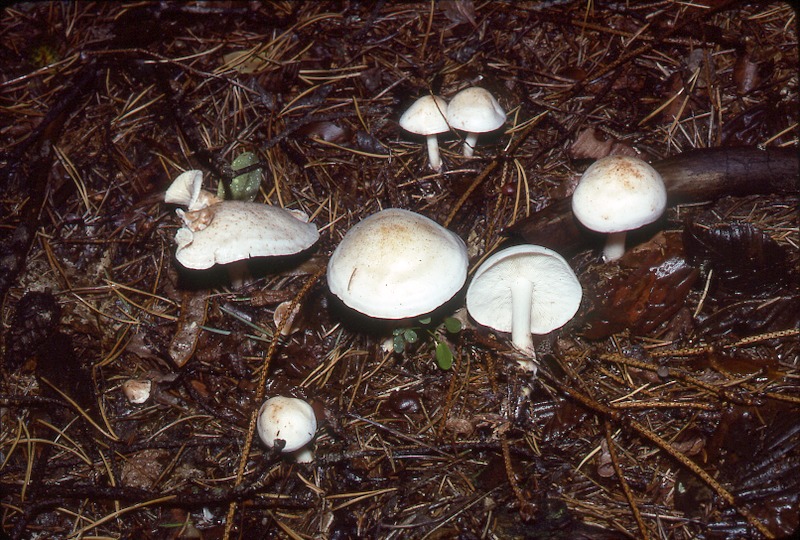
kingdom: Fungi
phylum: Basidiomycota
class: Agaricomycetes
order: Agaricales
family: Omphalotaceae
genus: Rhodocollybia
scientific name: Rhodocollybia maculata
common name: Spotted tough-shank
